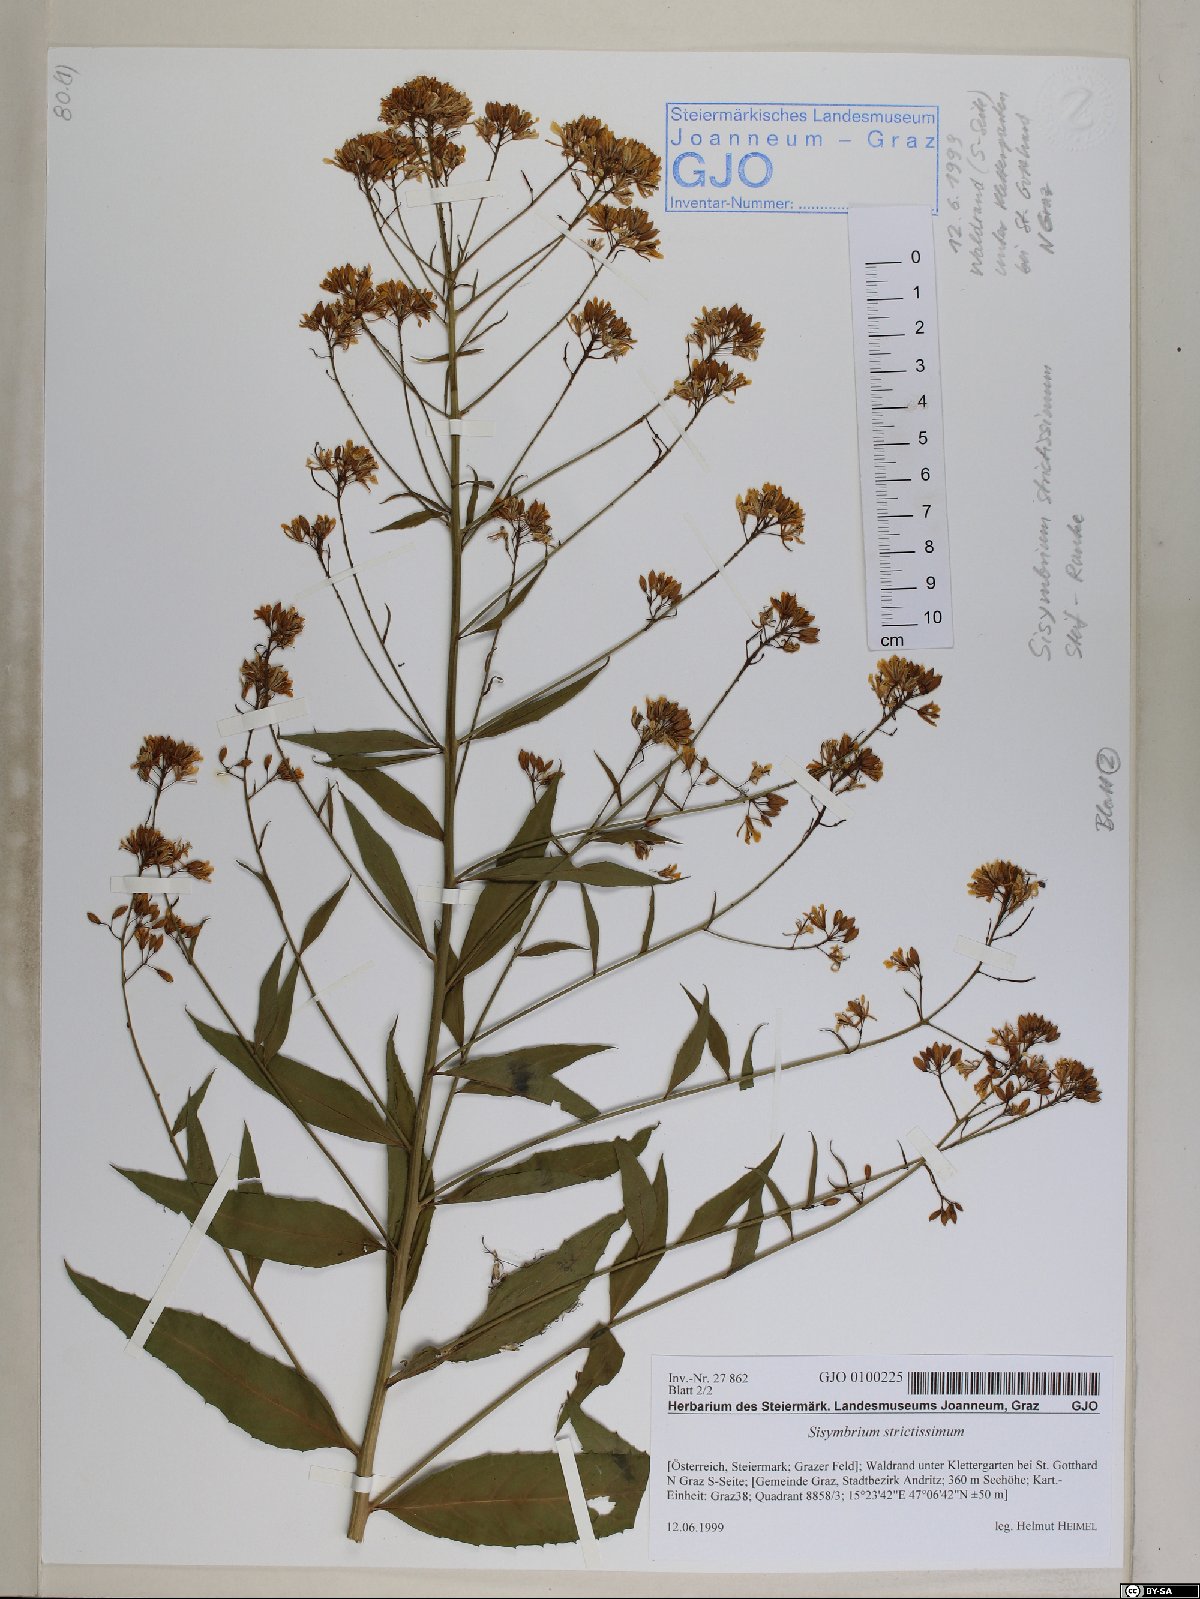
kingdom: Plantae
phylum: Tracheophyta
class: Magnoliopsida
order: Brassicales
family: Brassicaceae
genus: Sisymbrium
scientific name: Sisymbrium strictissimum
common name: Perennial rocket
